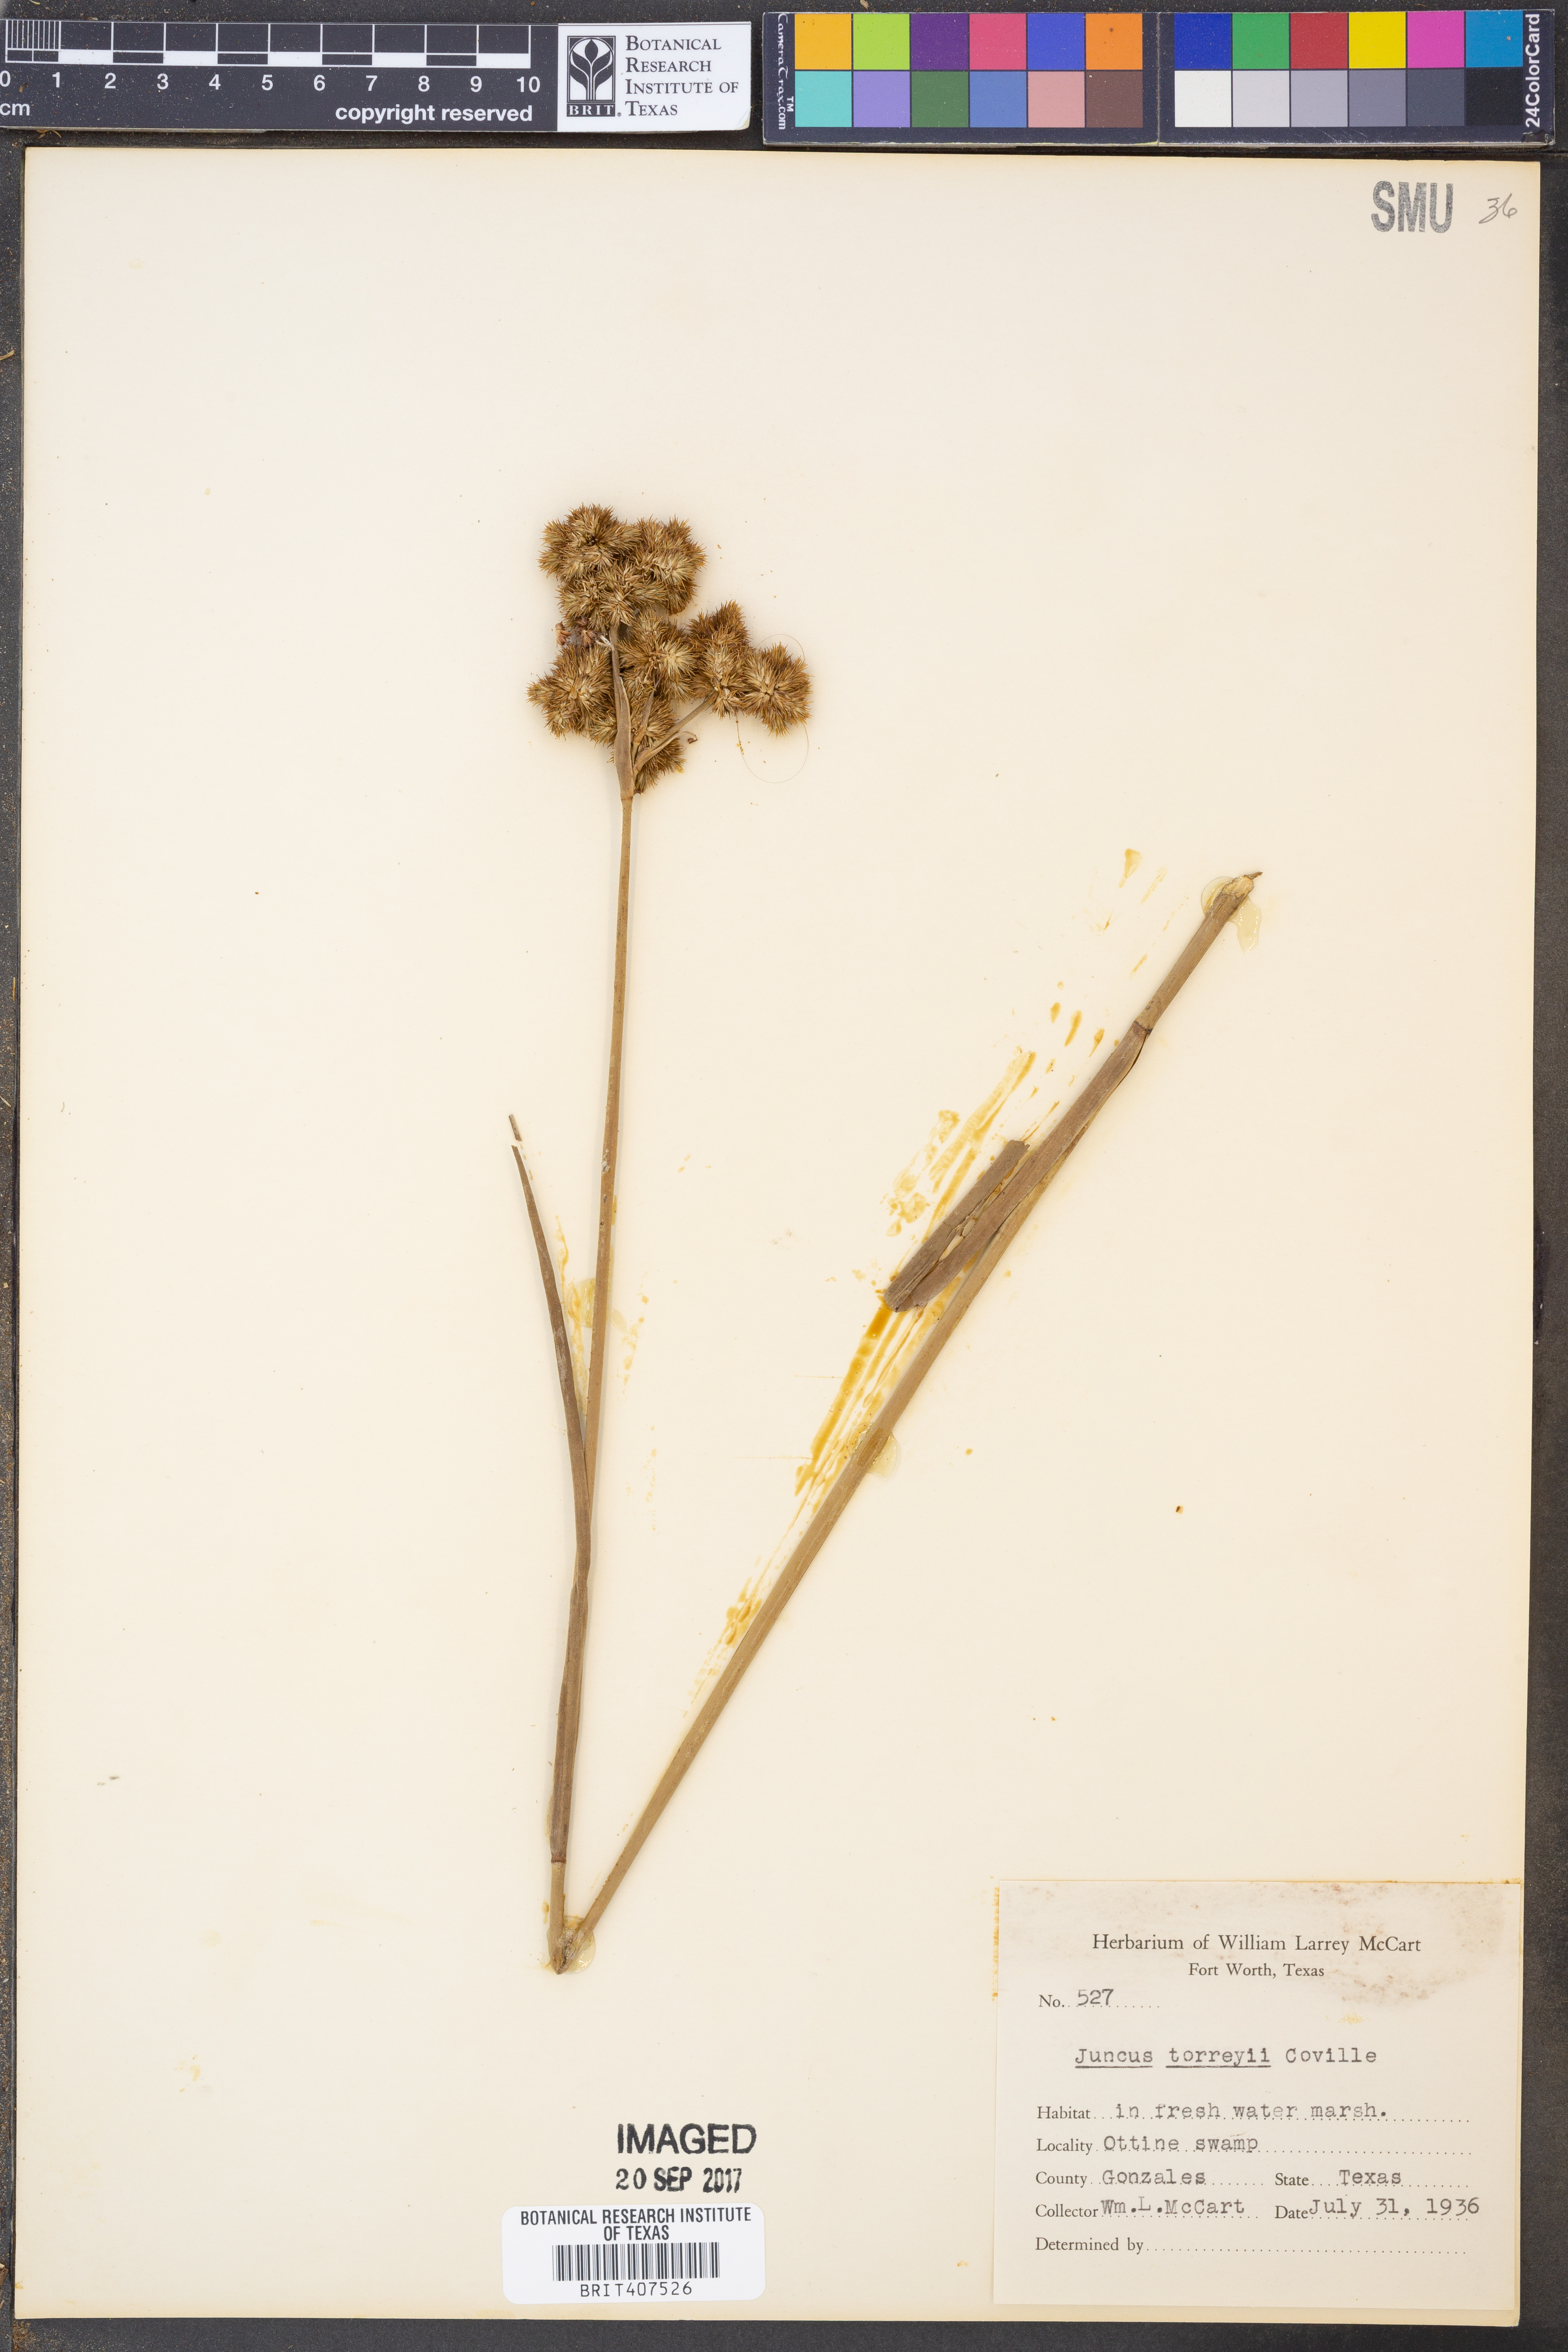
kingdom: Plantae
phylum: Tracheophyta
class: Liliopsida
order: Poales
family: Juncaceae
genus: Juncus
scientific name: Juncus torreyi
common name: Torrey's rush
